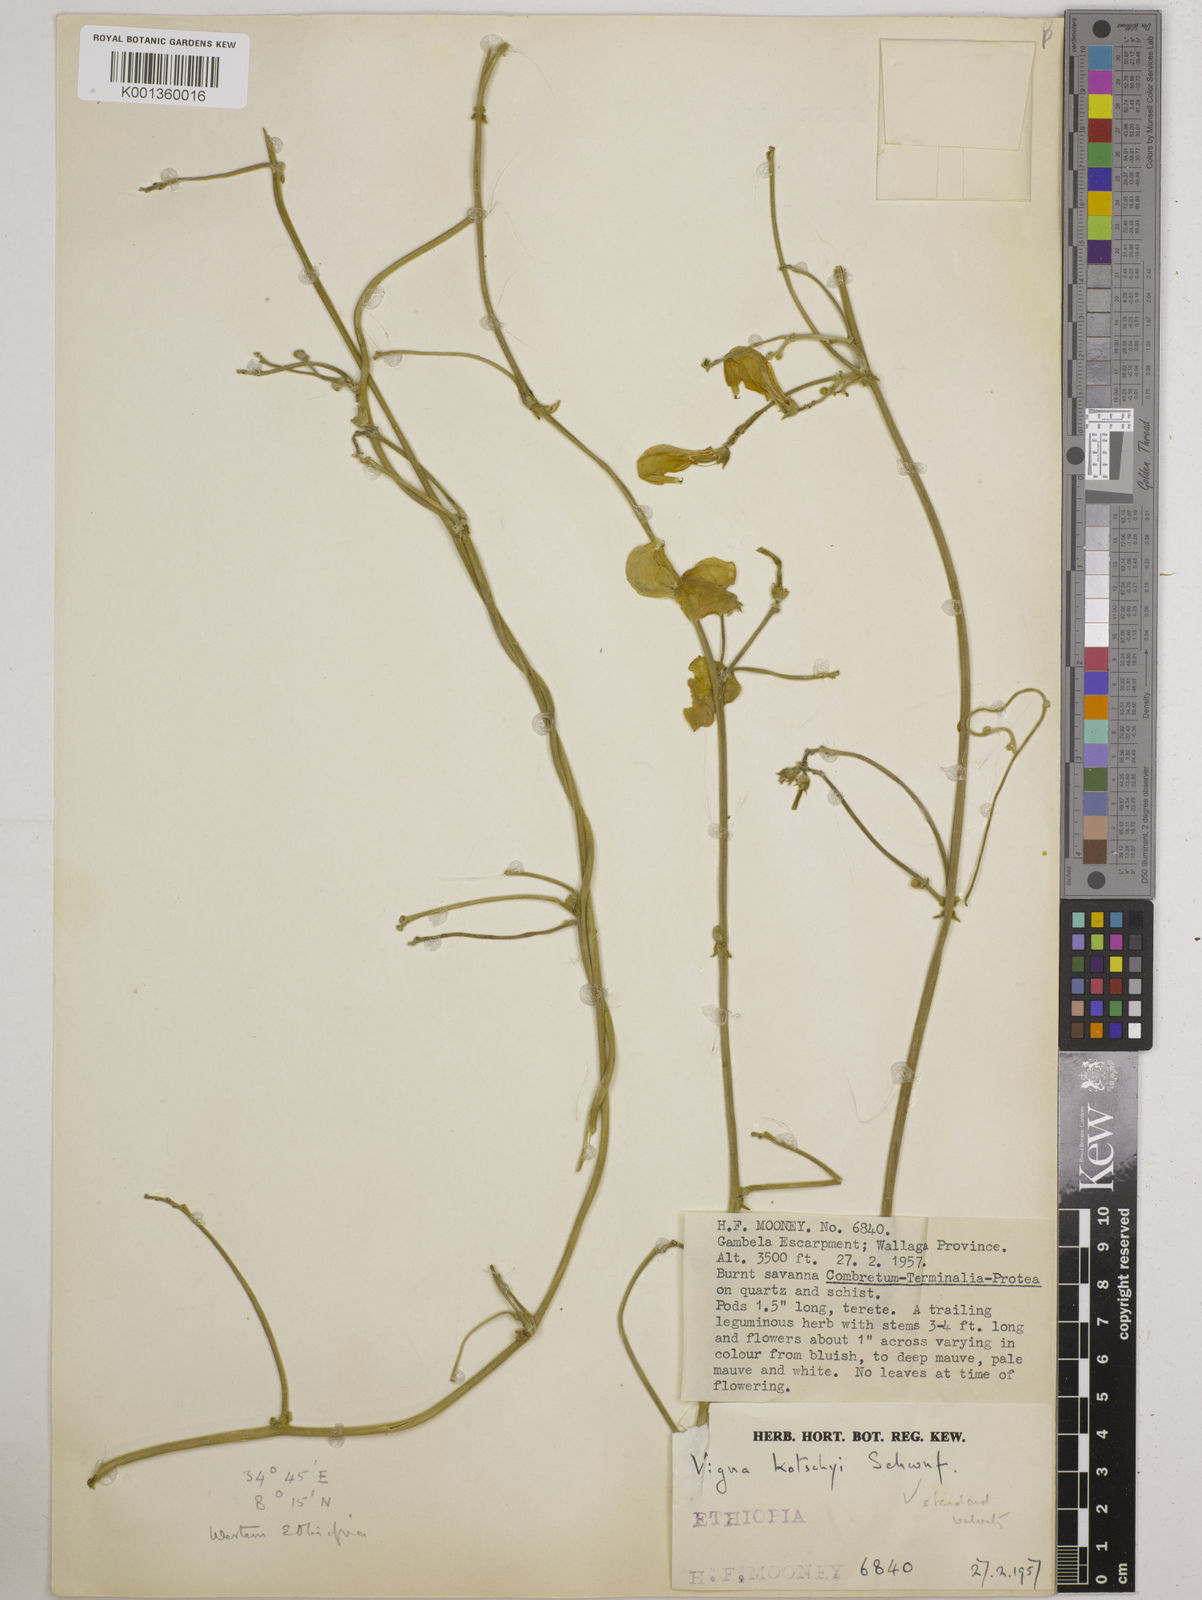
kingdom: Plantae
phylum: Tracheophyta
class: Magnoliopsida
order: Fabales
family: Fabaceae
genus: Vigna
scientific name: Vigna
